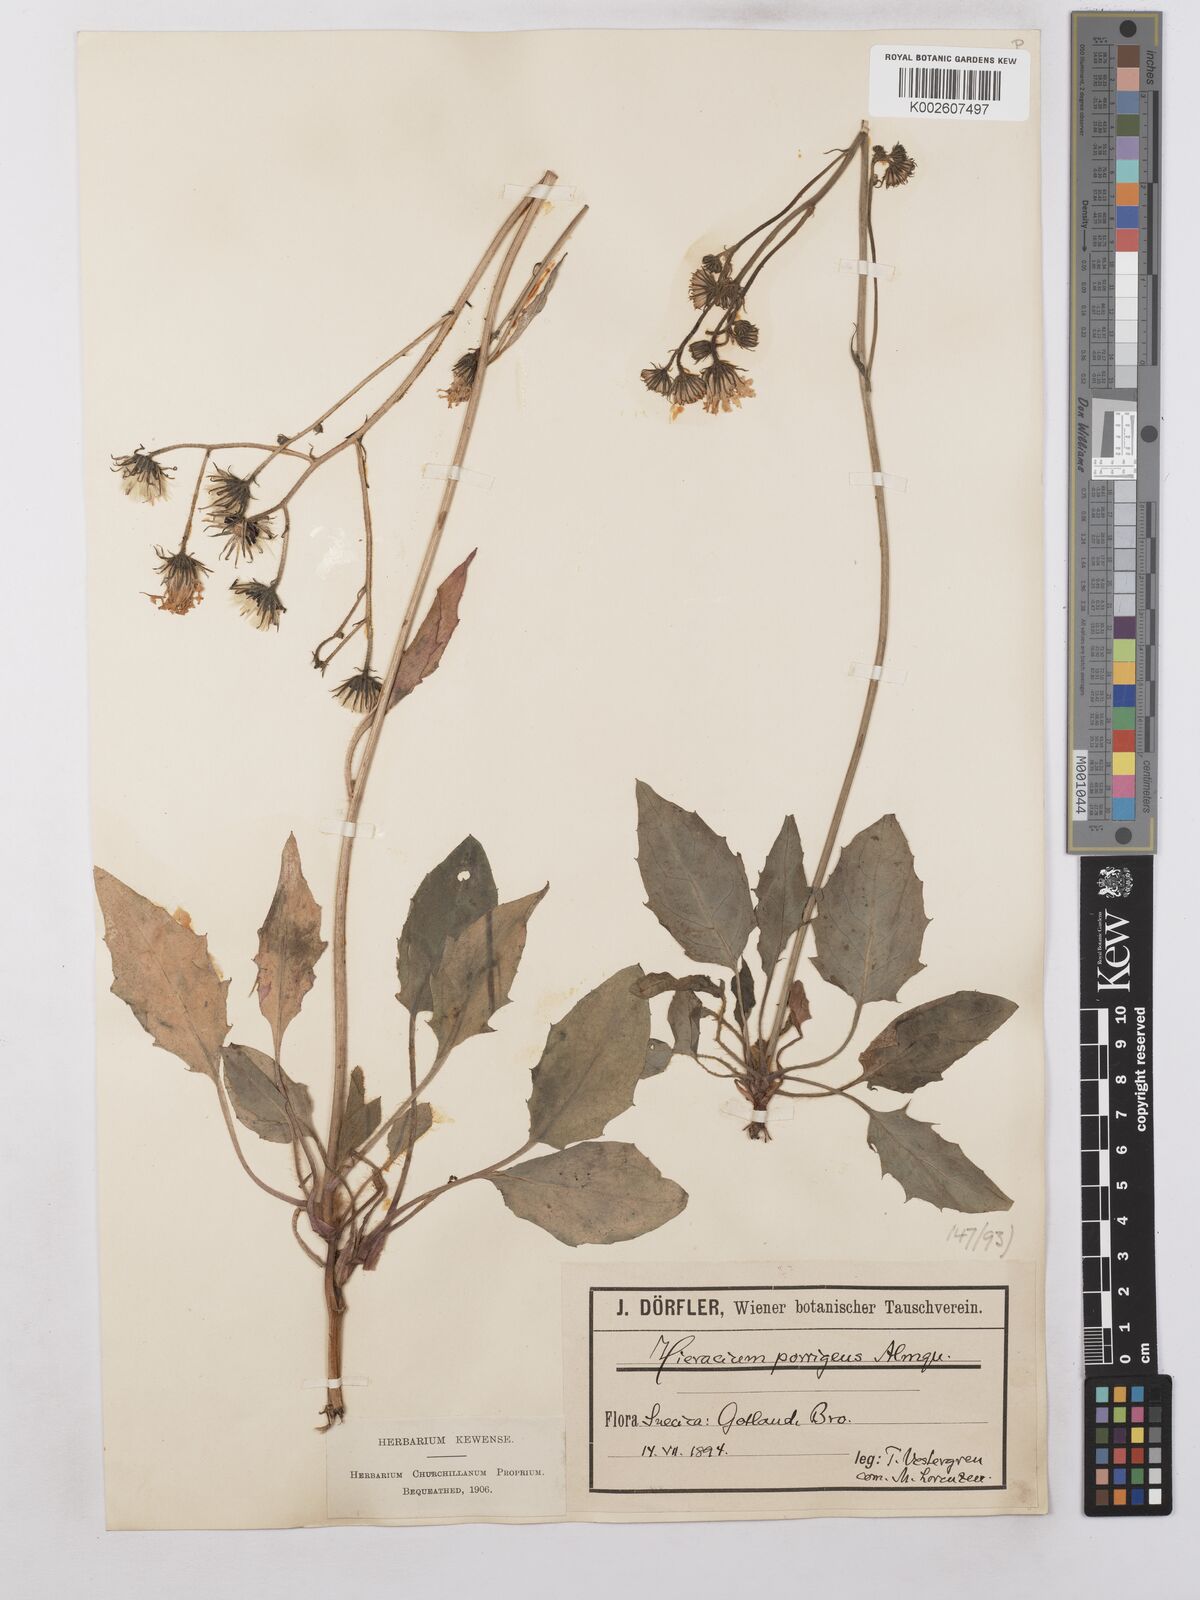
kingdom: Plantae
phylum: Tracheophyta
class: Magnoliopsida
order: Asterales
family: Asteraceae
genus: Hieracium
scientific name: Hieracium caesium
